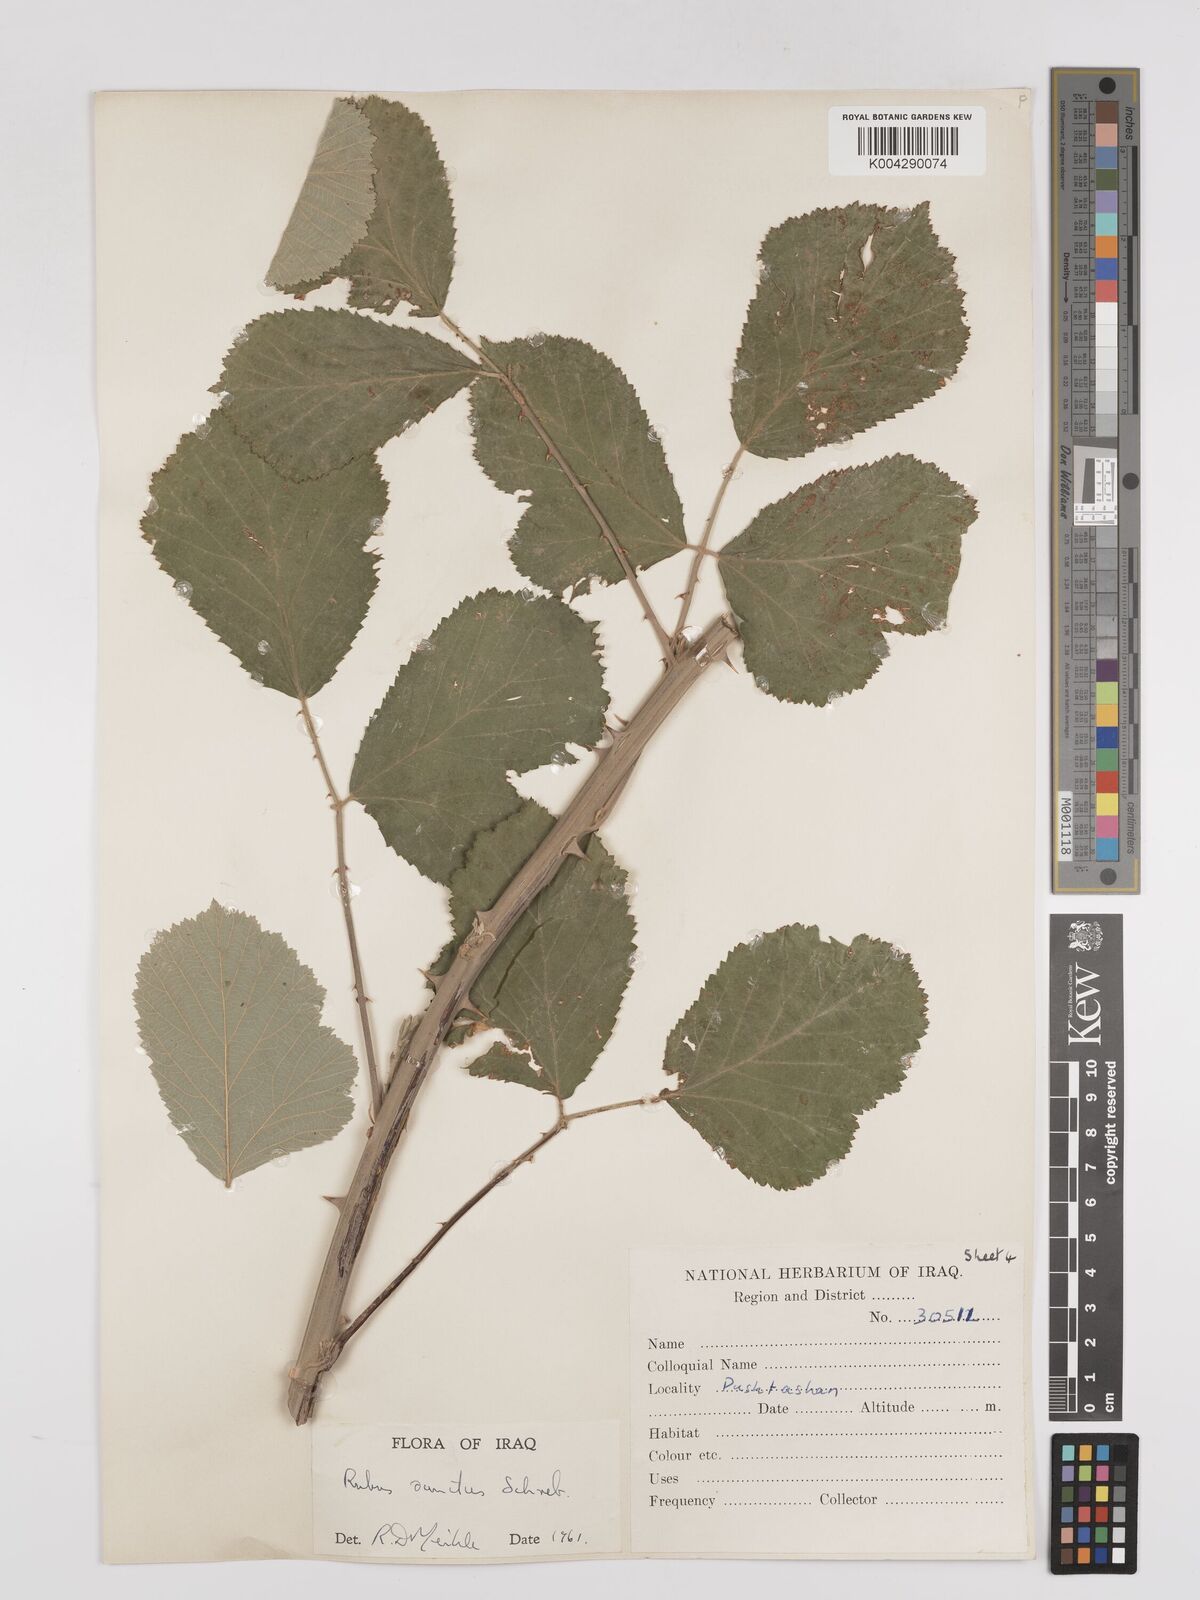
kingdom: Plantae
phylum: Tracheophyta
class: Magnoliopsida
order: Rosales
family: Rosaceae
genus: Rubus
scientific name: Rubus sanctus
